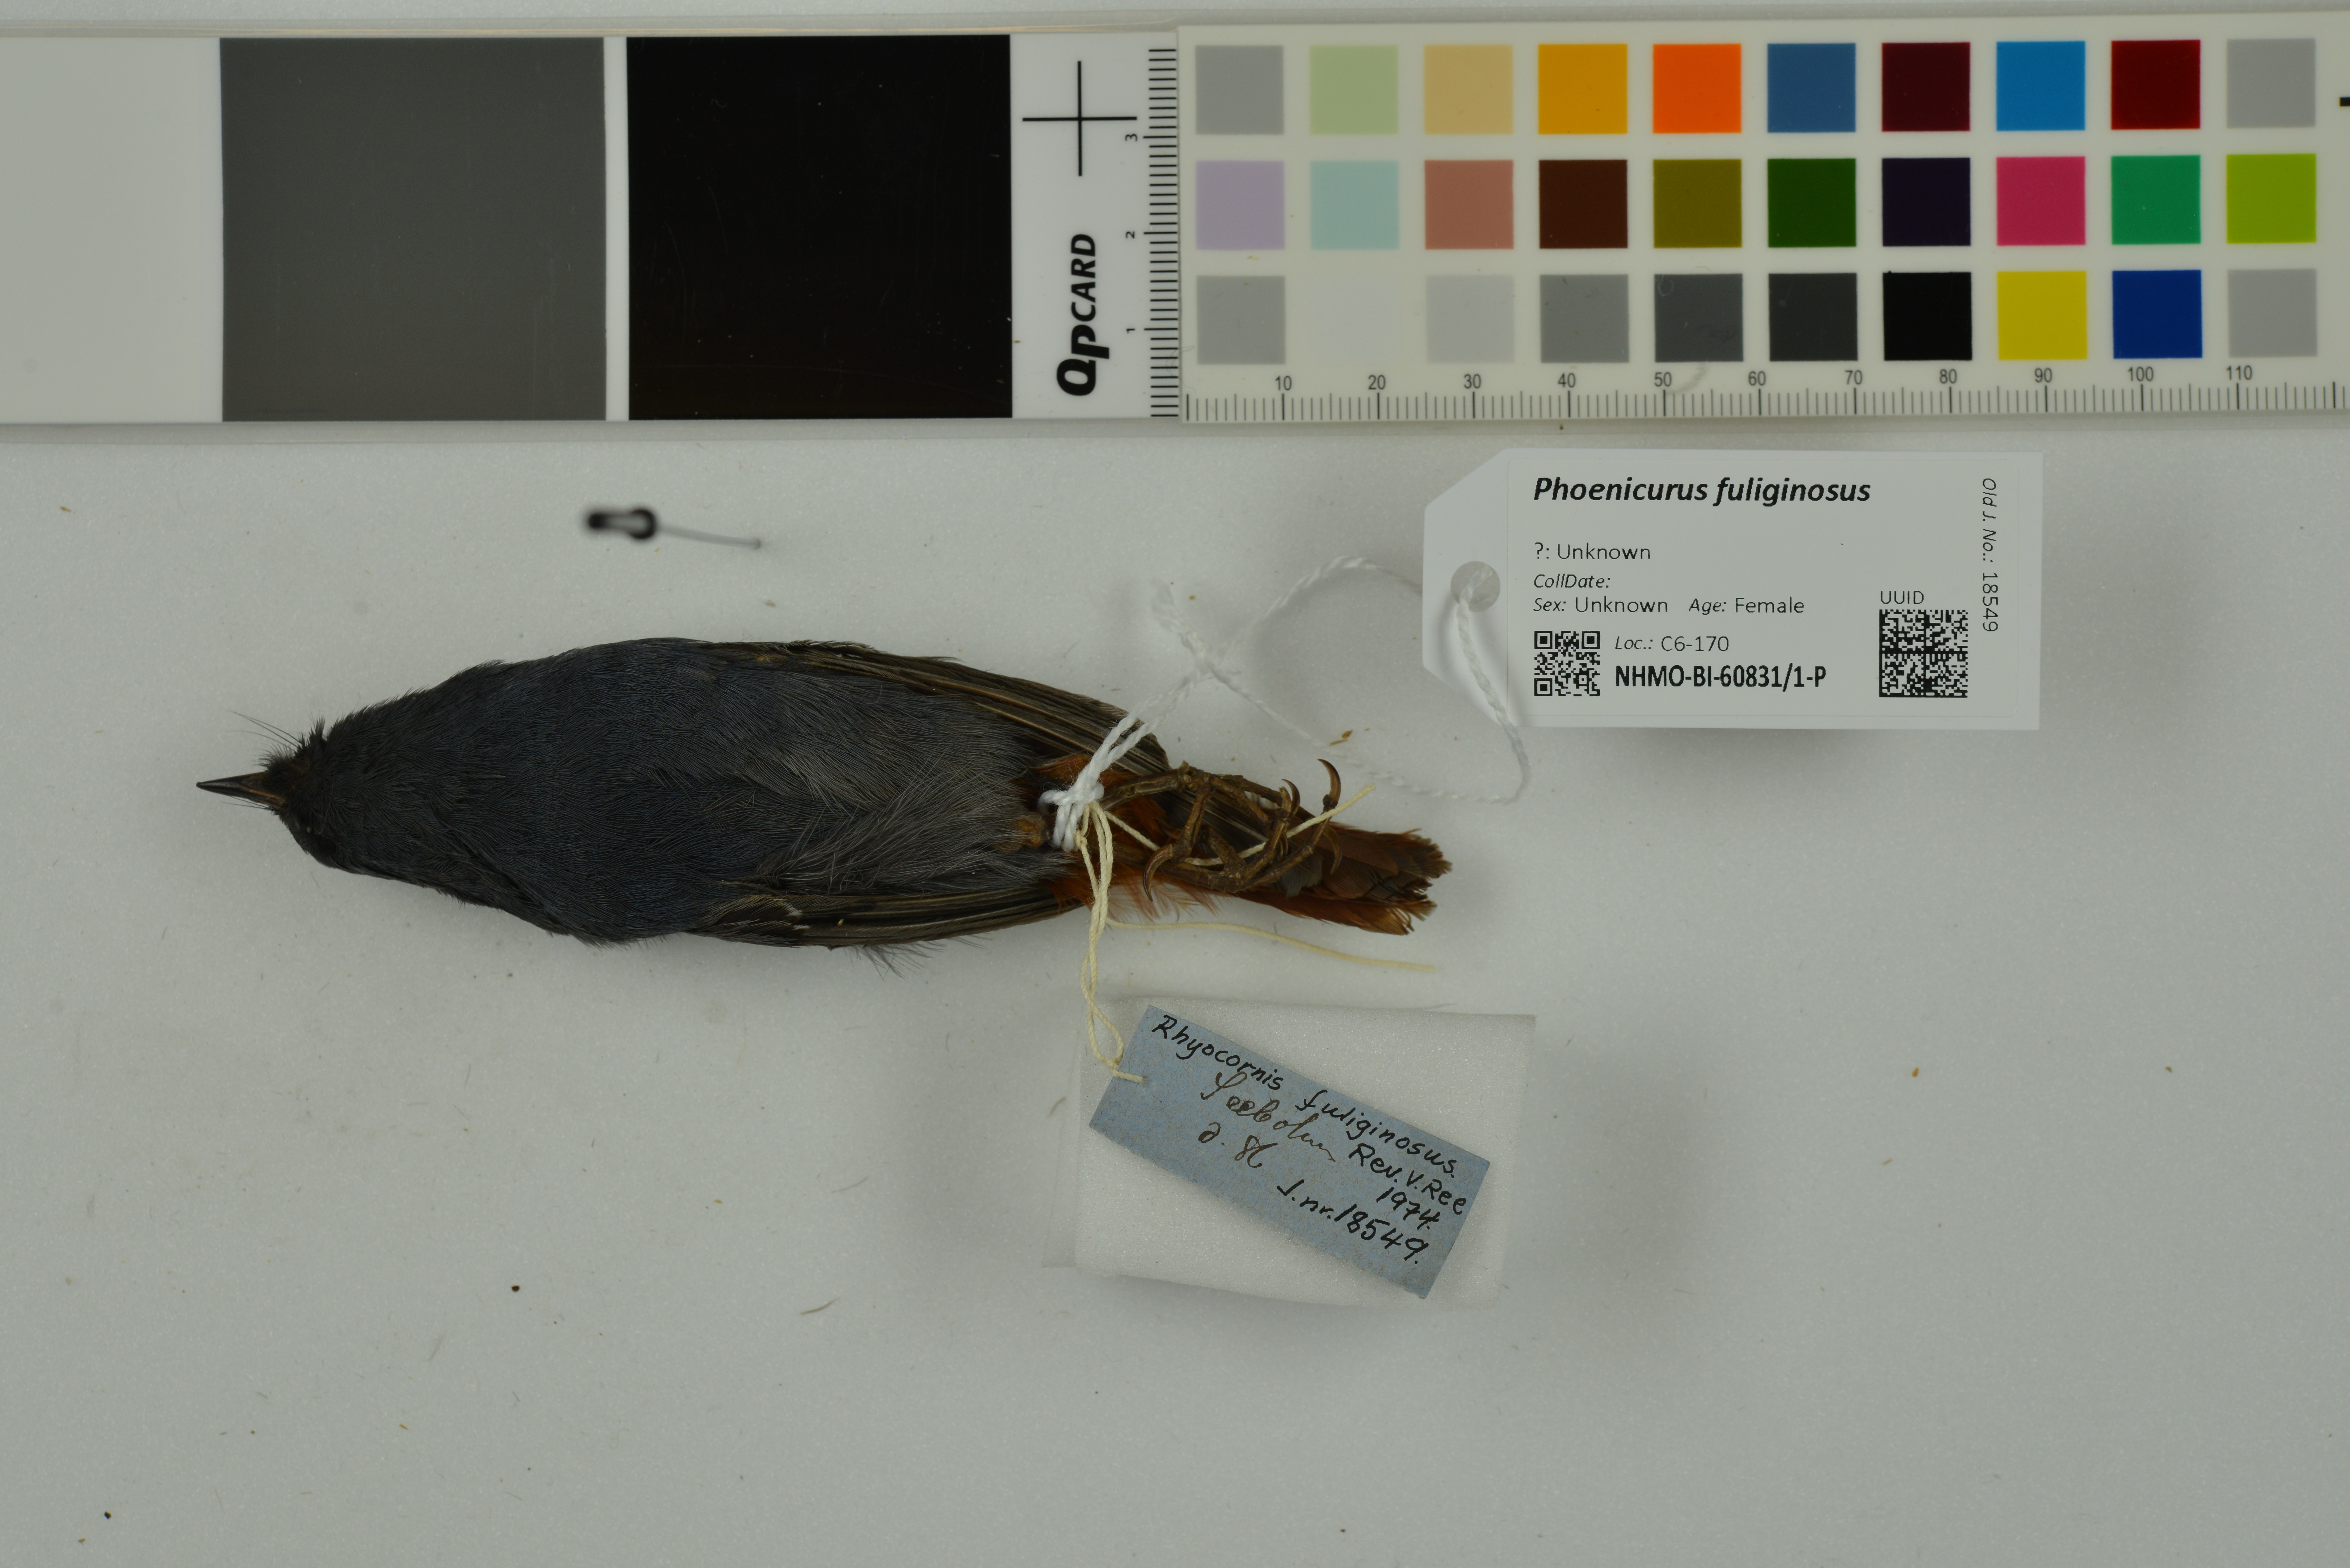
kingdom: Animalia
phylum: Chordata
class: Aves
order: Passeriformes
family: Muscicapidae
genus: Phoenicurus
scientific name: Phoenicurus fuliginosus
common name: Plumbeous water redstart
